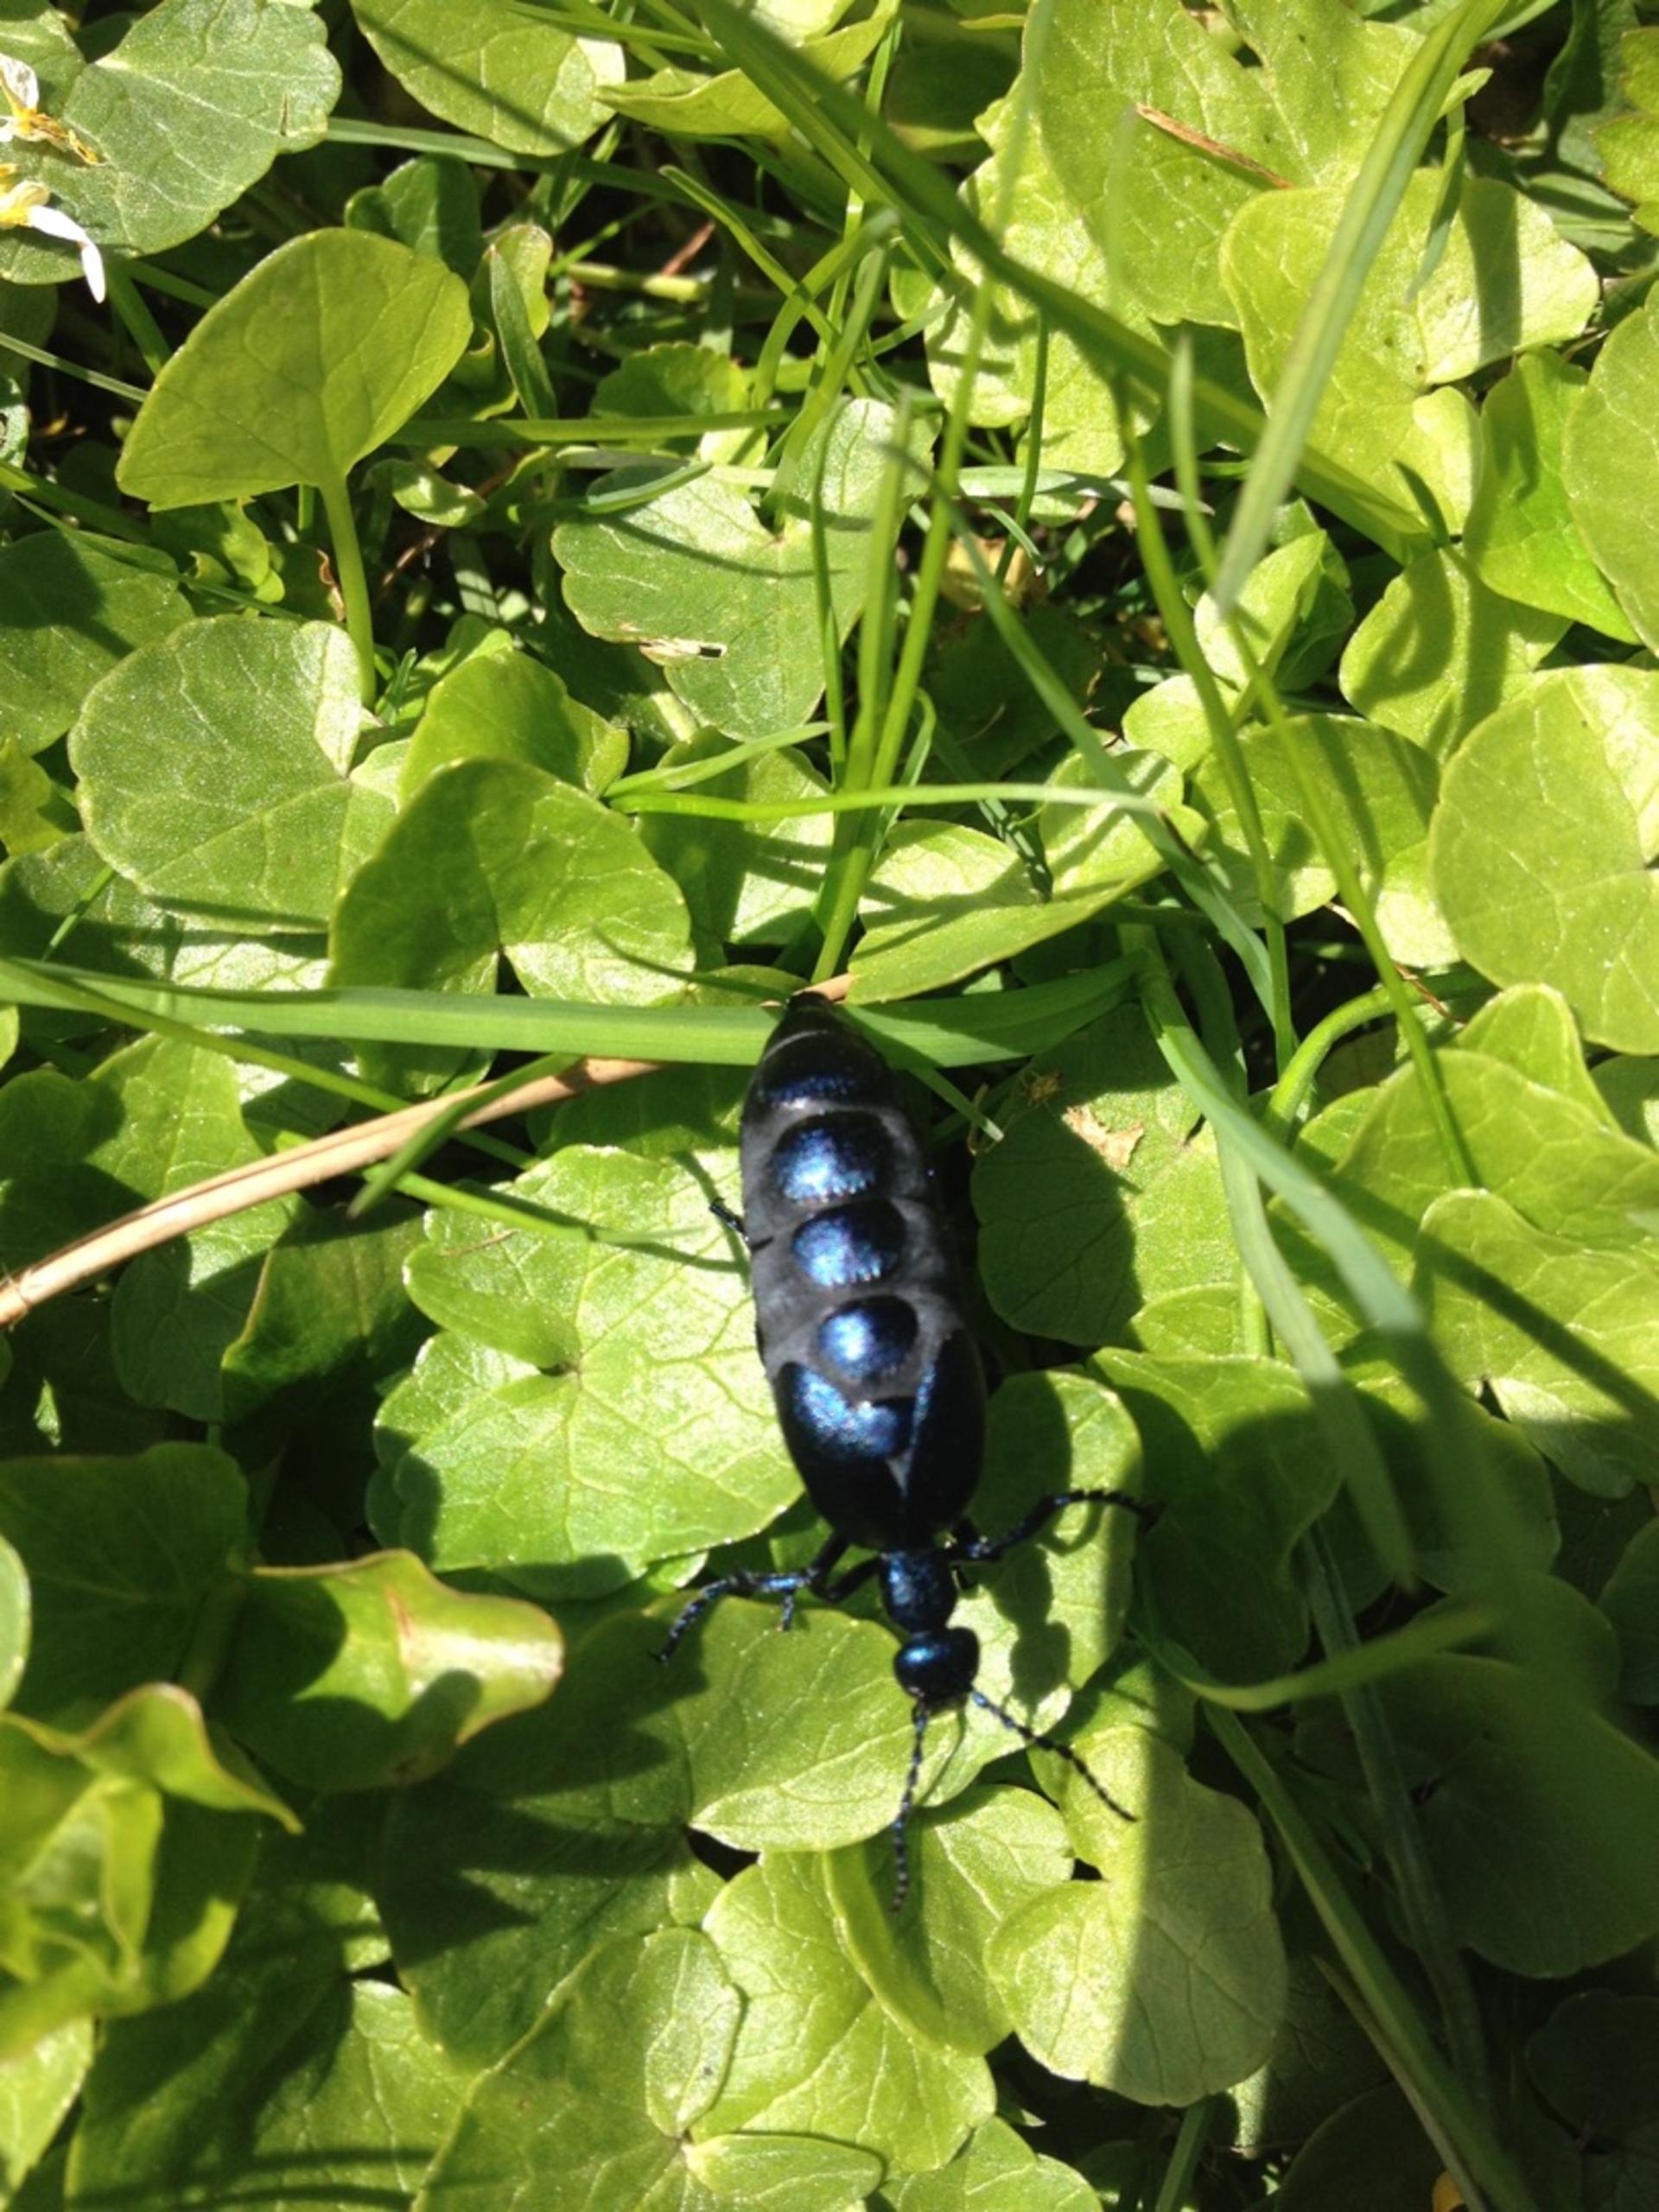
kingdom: Animalia
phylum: Arthropoda
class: Insecta
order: Coleoptera
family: Meloidae
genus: Meloe
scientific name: Meloe violaceus
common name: Blå oliebille
